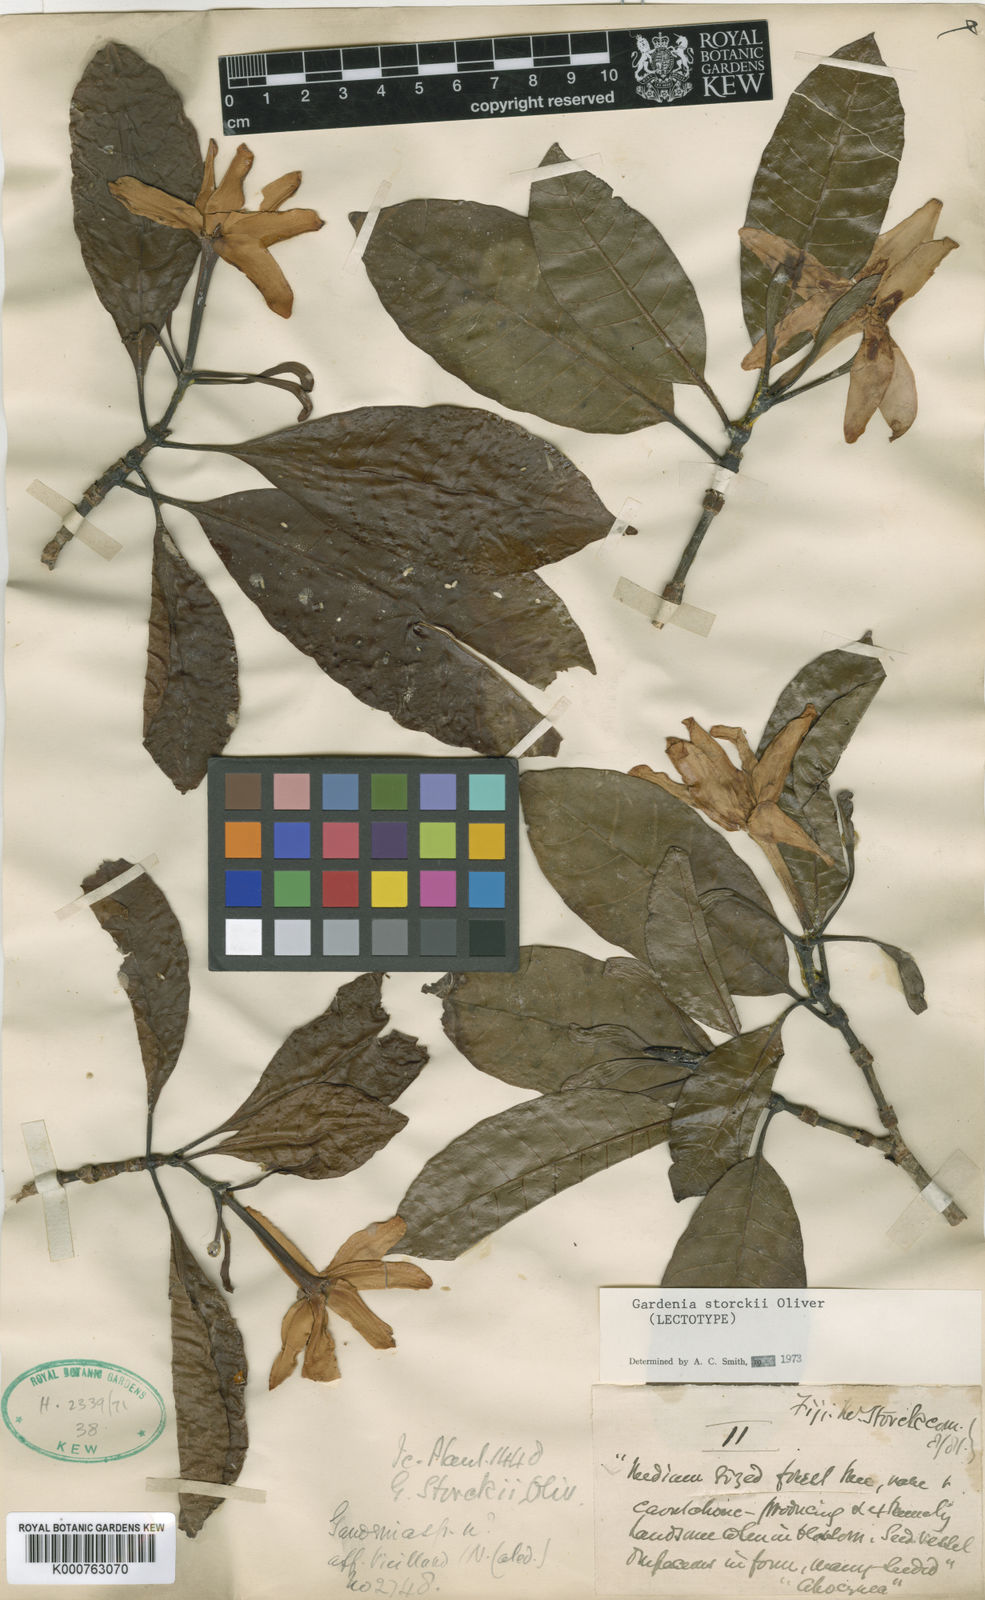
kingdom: Plantae
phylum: Tracheophyta
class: Magnoliopsida
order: Gentianales
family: Rubiaceae
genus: Gardenia
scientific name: Gardenia storckii
